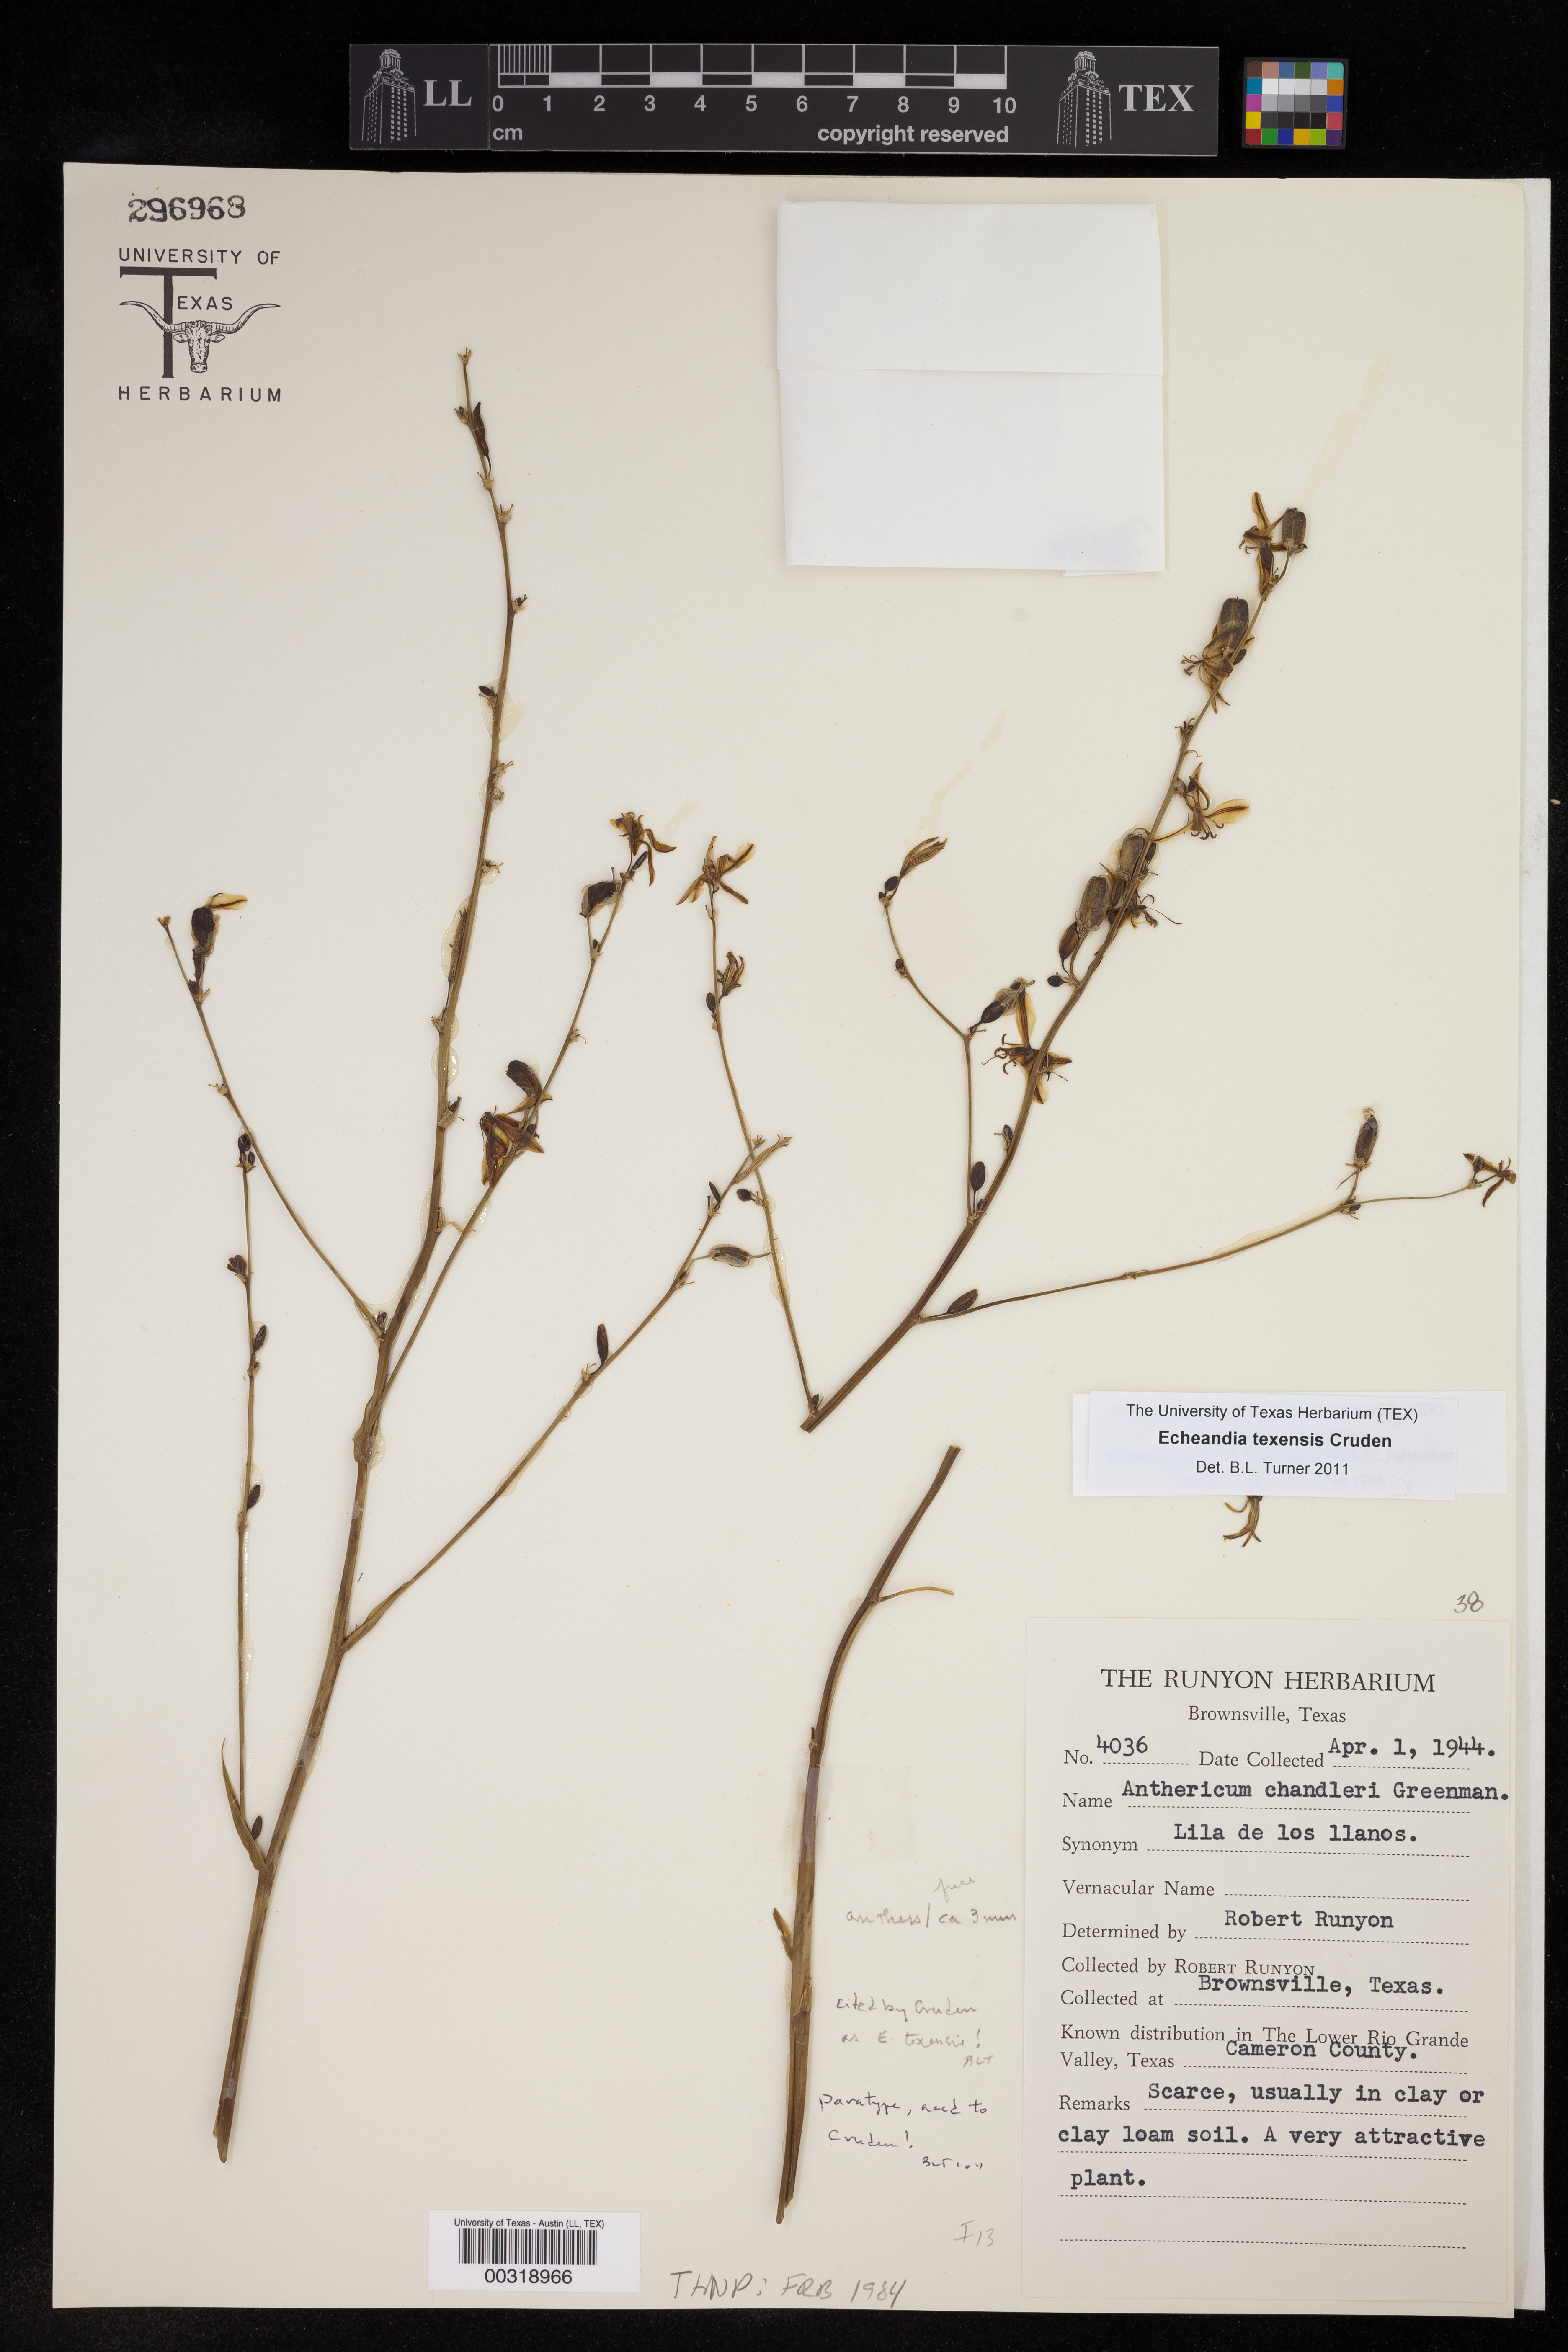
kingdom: Plantae
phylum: Tracheophyta
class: Liliopsida
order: Asparagales
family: Asparagaceae
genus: Echeandia
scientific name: Echeandia texensis
